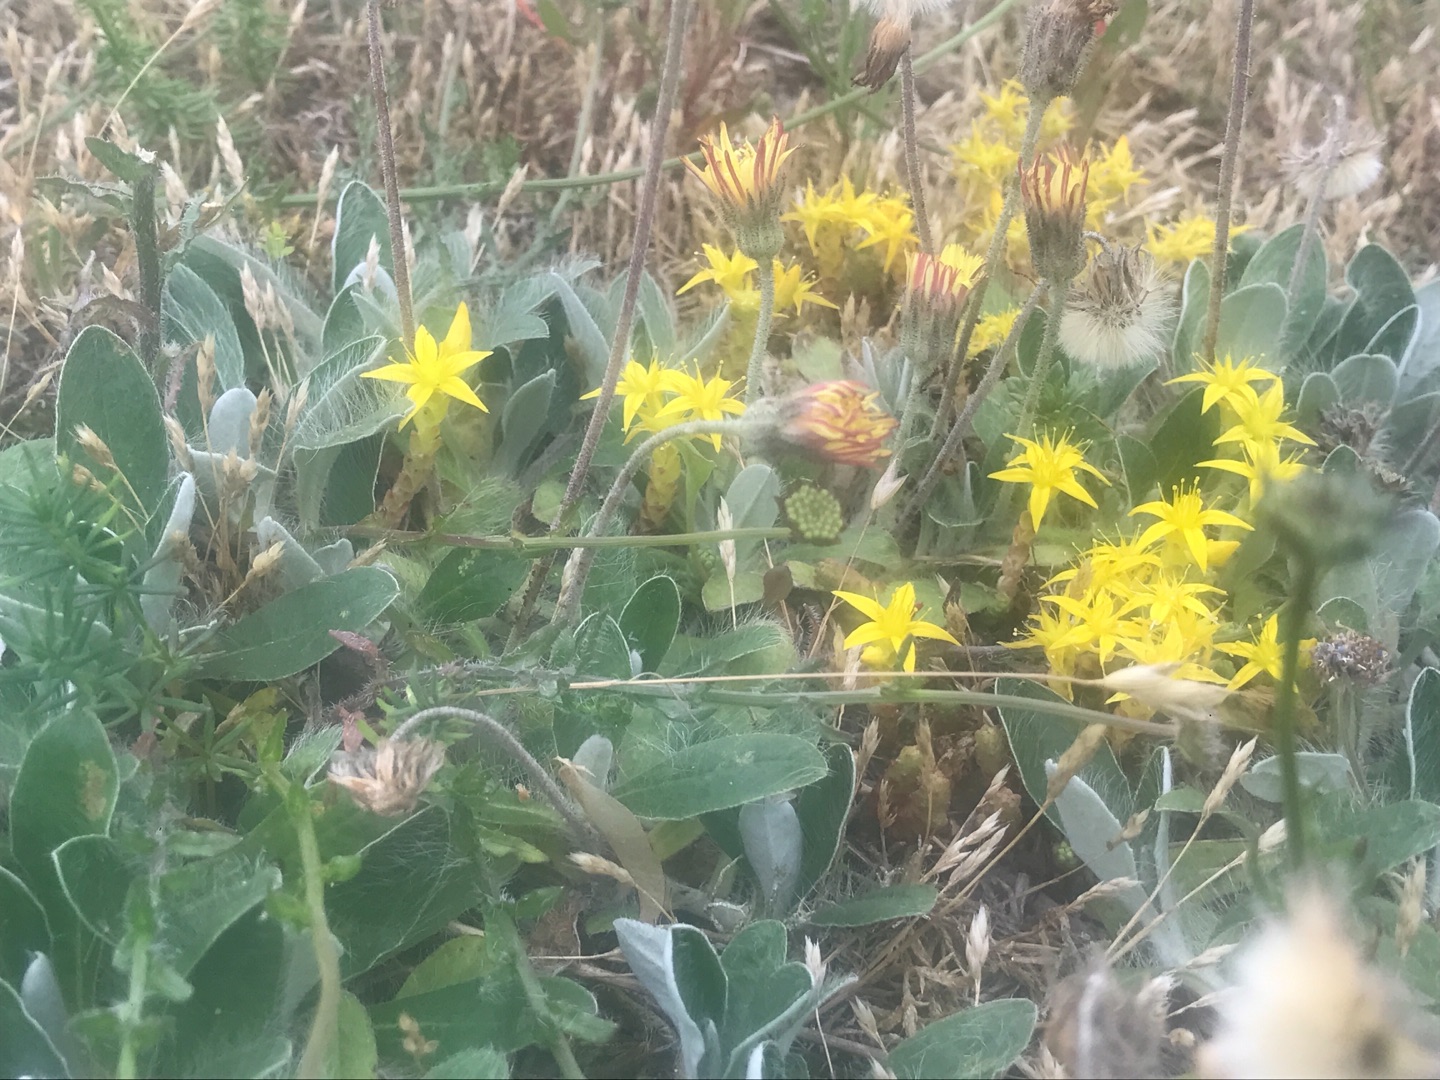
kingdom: Plantae
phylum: Tracheophyta
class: Magnoliopsida
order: Asterales
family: Asteraceae
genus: Pilosella
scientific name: Pilosella peleteriana
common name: Klit-høgeurt
